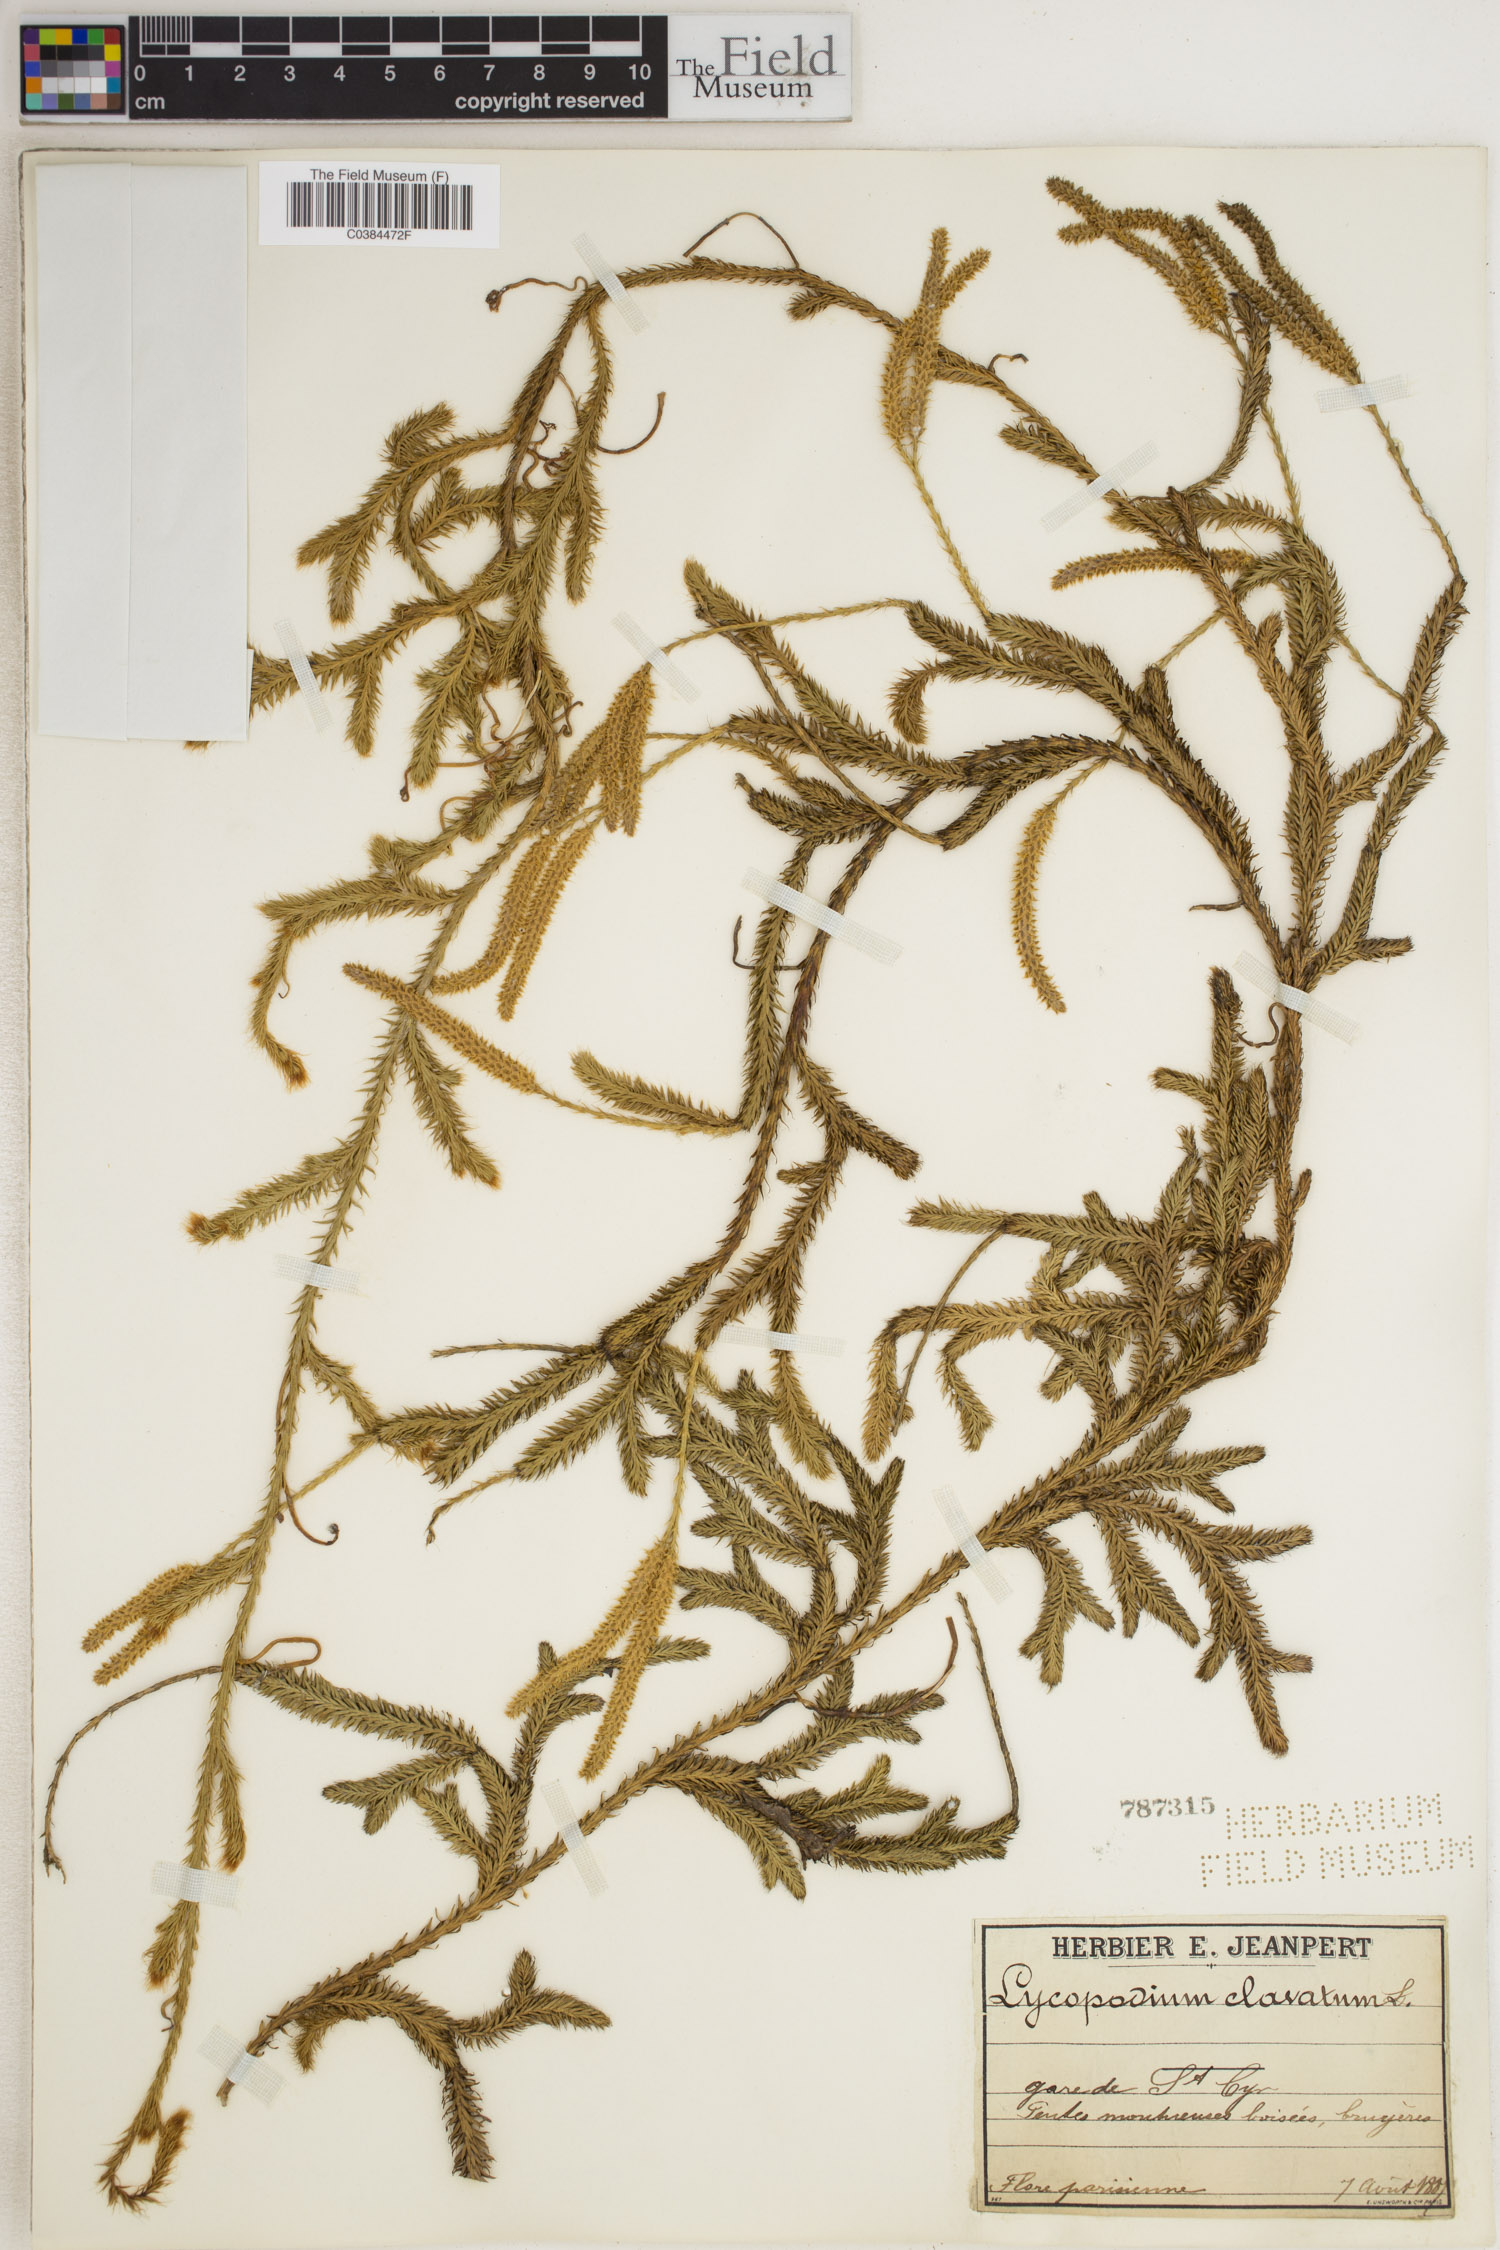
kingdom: Plantae
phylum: Tracheophyta
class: Lycopodiopsida
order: Lycopodiales
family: Lycopodiaceae
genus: Lycopodium
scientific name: Lycopodium clavatum
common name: Stag's-horn clubmoss
